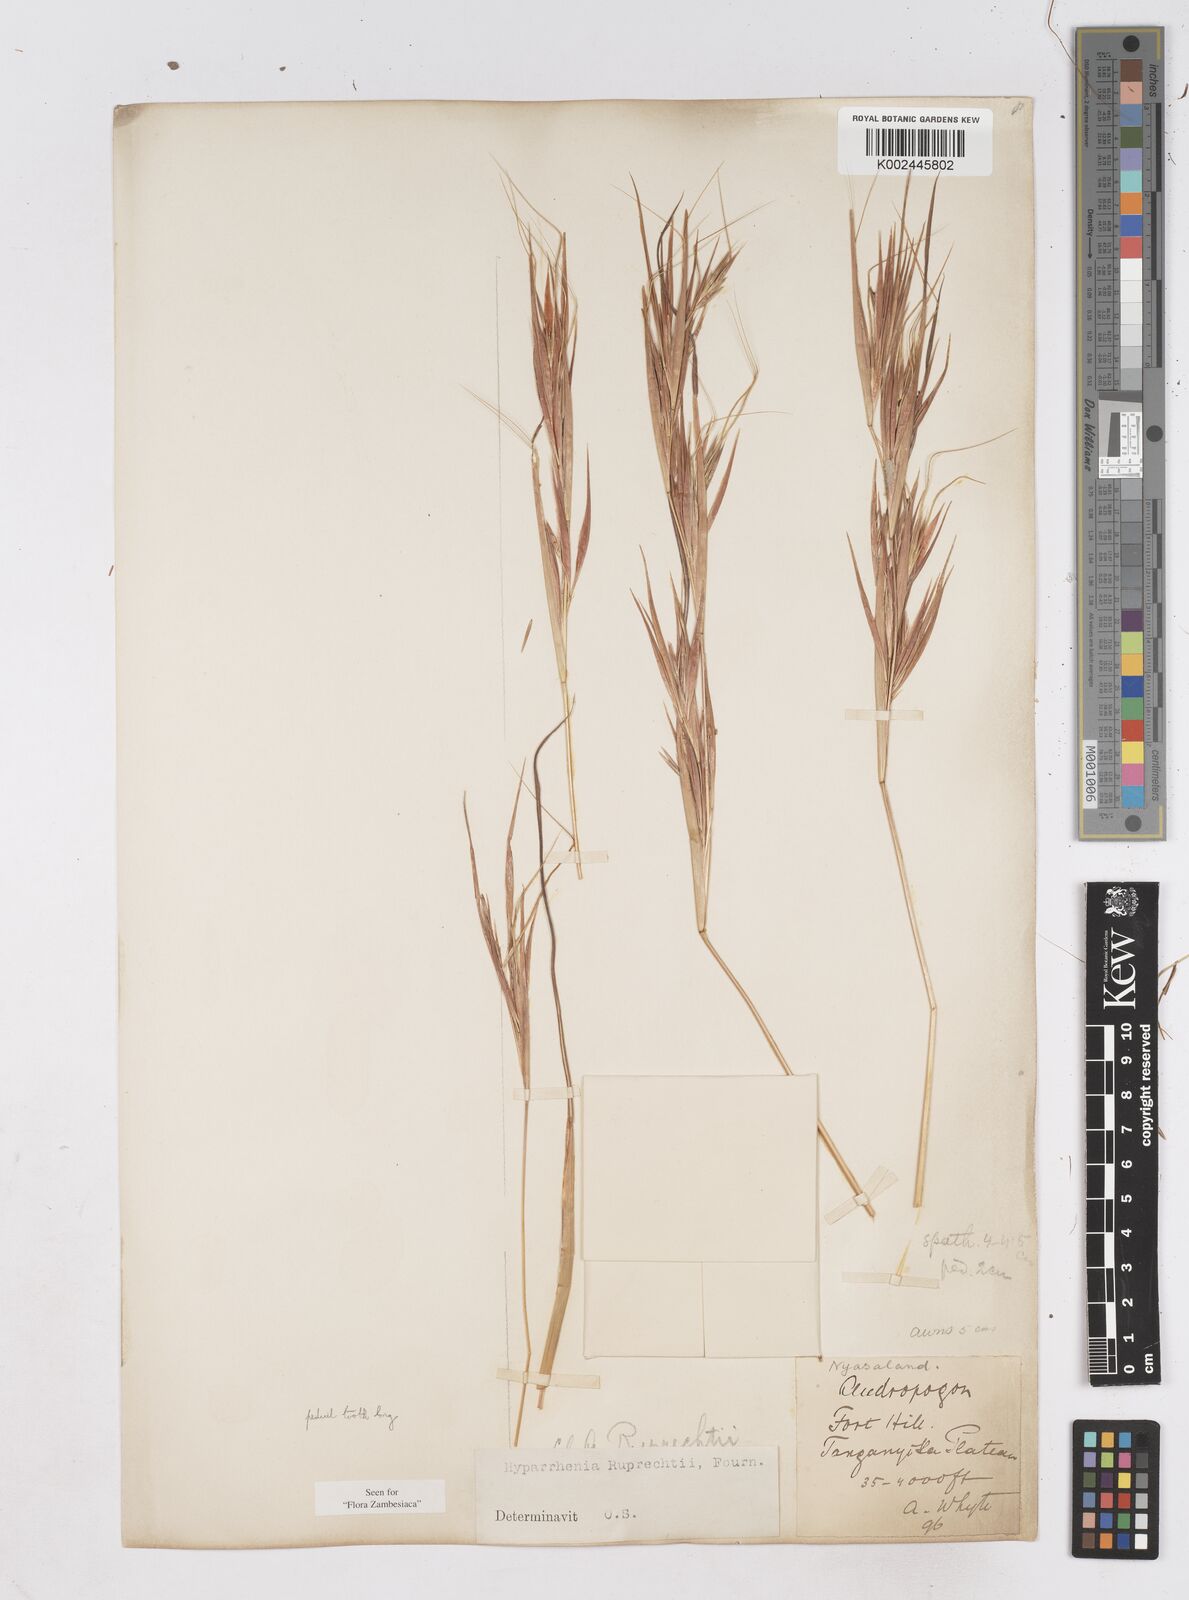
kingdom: Plantae
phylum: Tracheophyta
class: Liliopsida
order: Poales
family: Poaceae
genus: Hyperthelia
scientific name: Hyperthelia dissoluta
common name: Yellow thatching grass
